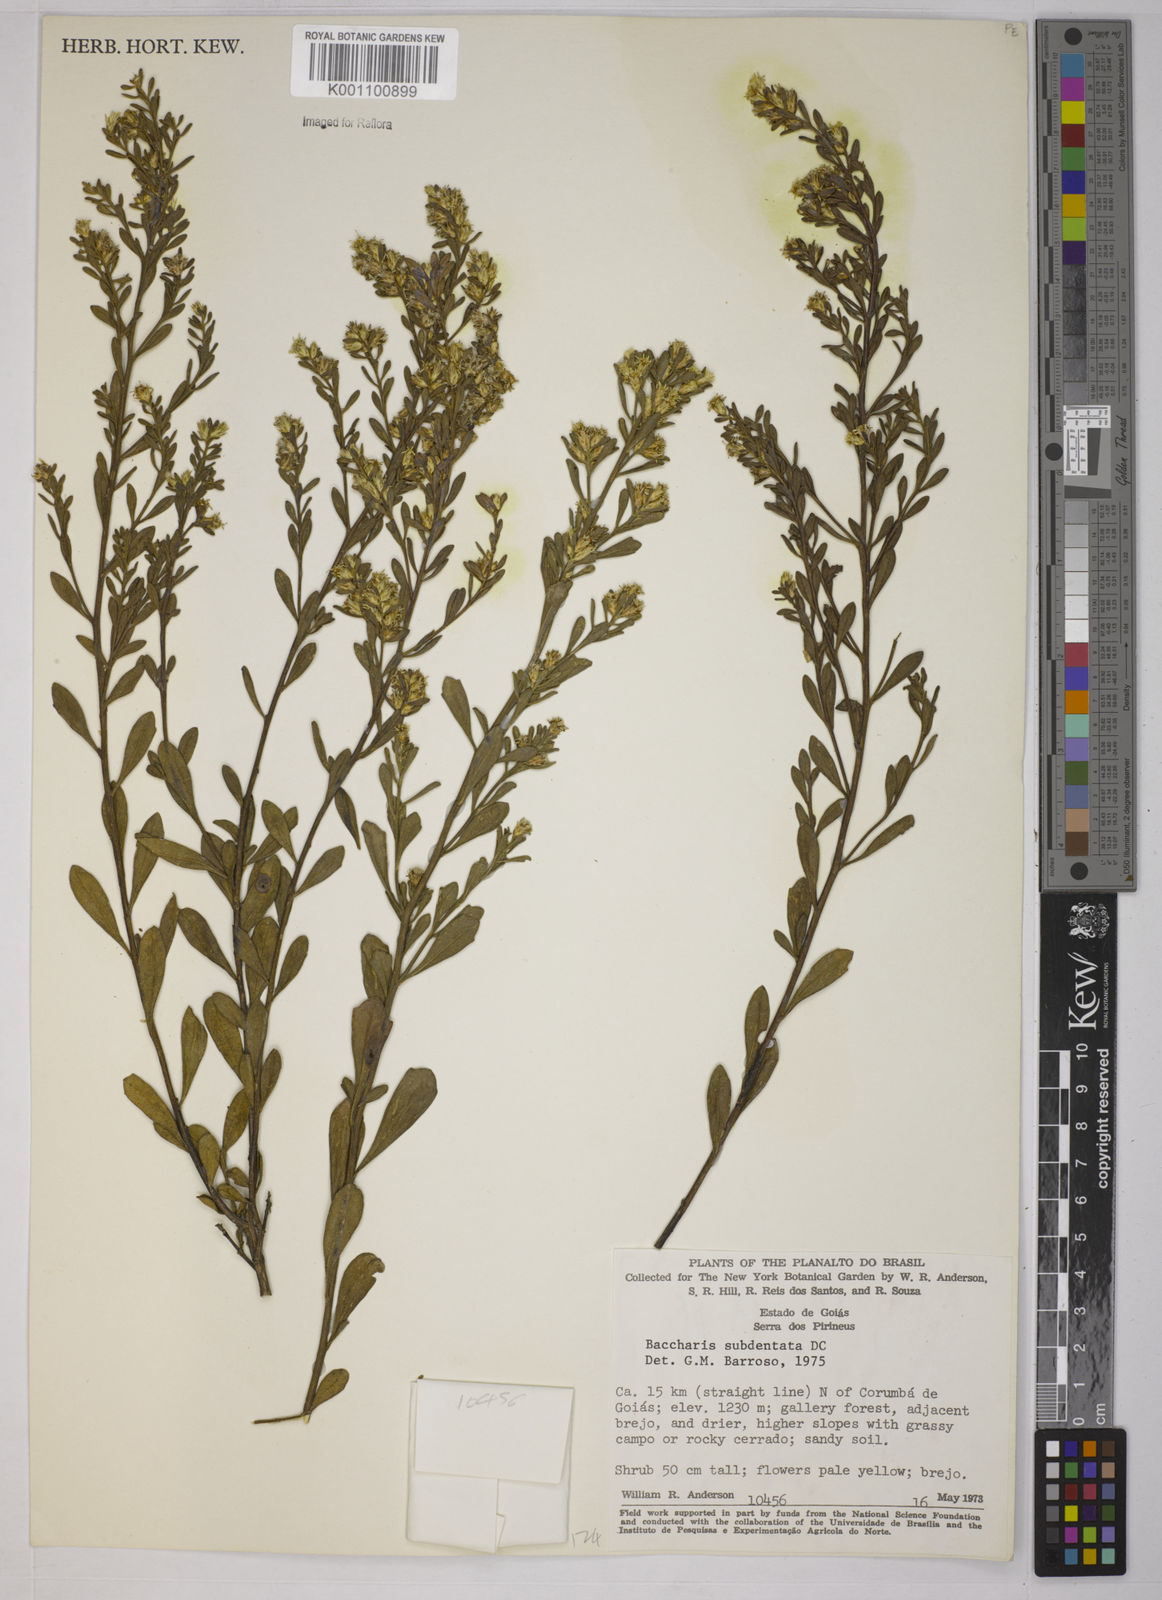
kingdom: Plantae
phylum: Tracheophyta
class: Magnoliopsida
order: Asterales
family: Asteraceae
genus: Baccharis
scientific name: Baccharis subdentata
